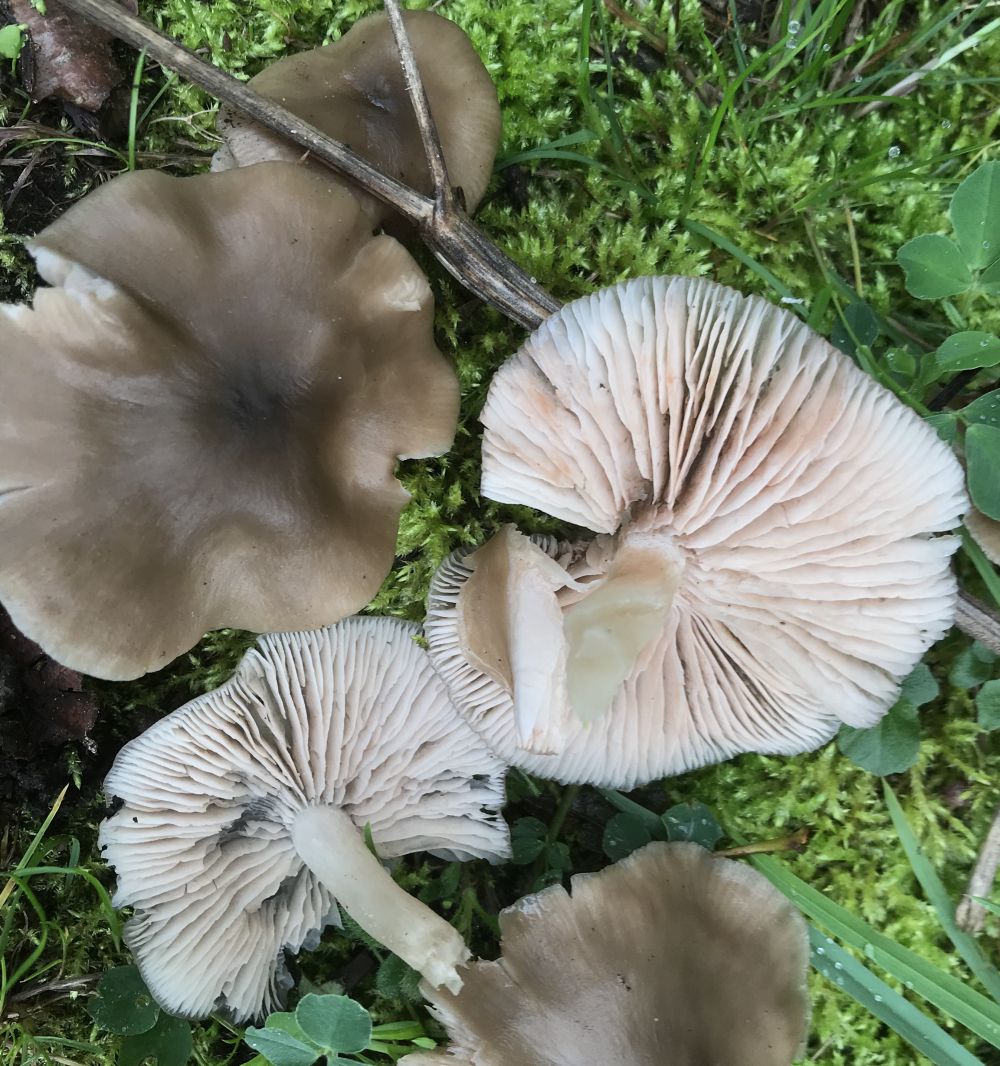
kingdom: Fungi
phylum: Basidiomycota
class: Agaricomycetes
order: Agaricales
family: Entolomataceae
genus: Entoloma
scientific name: Entoloma
